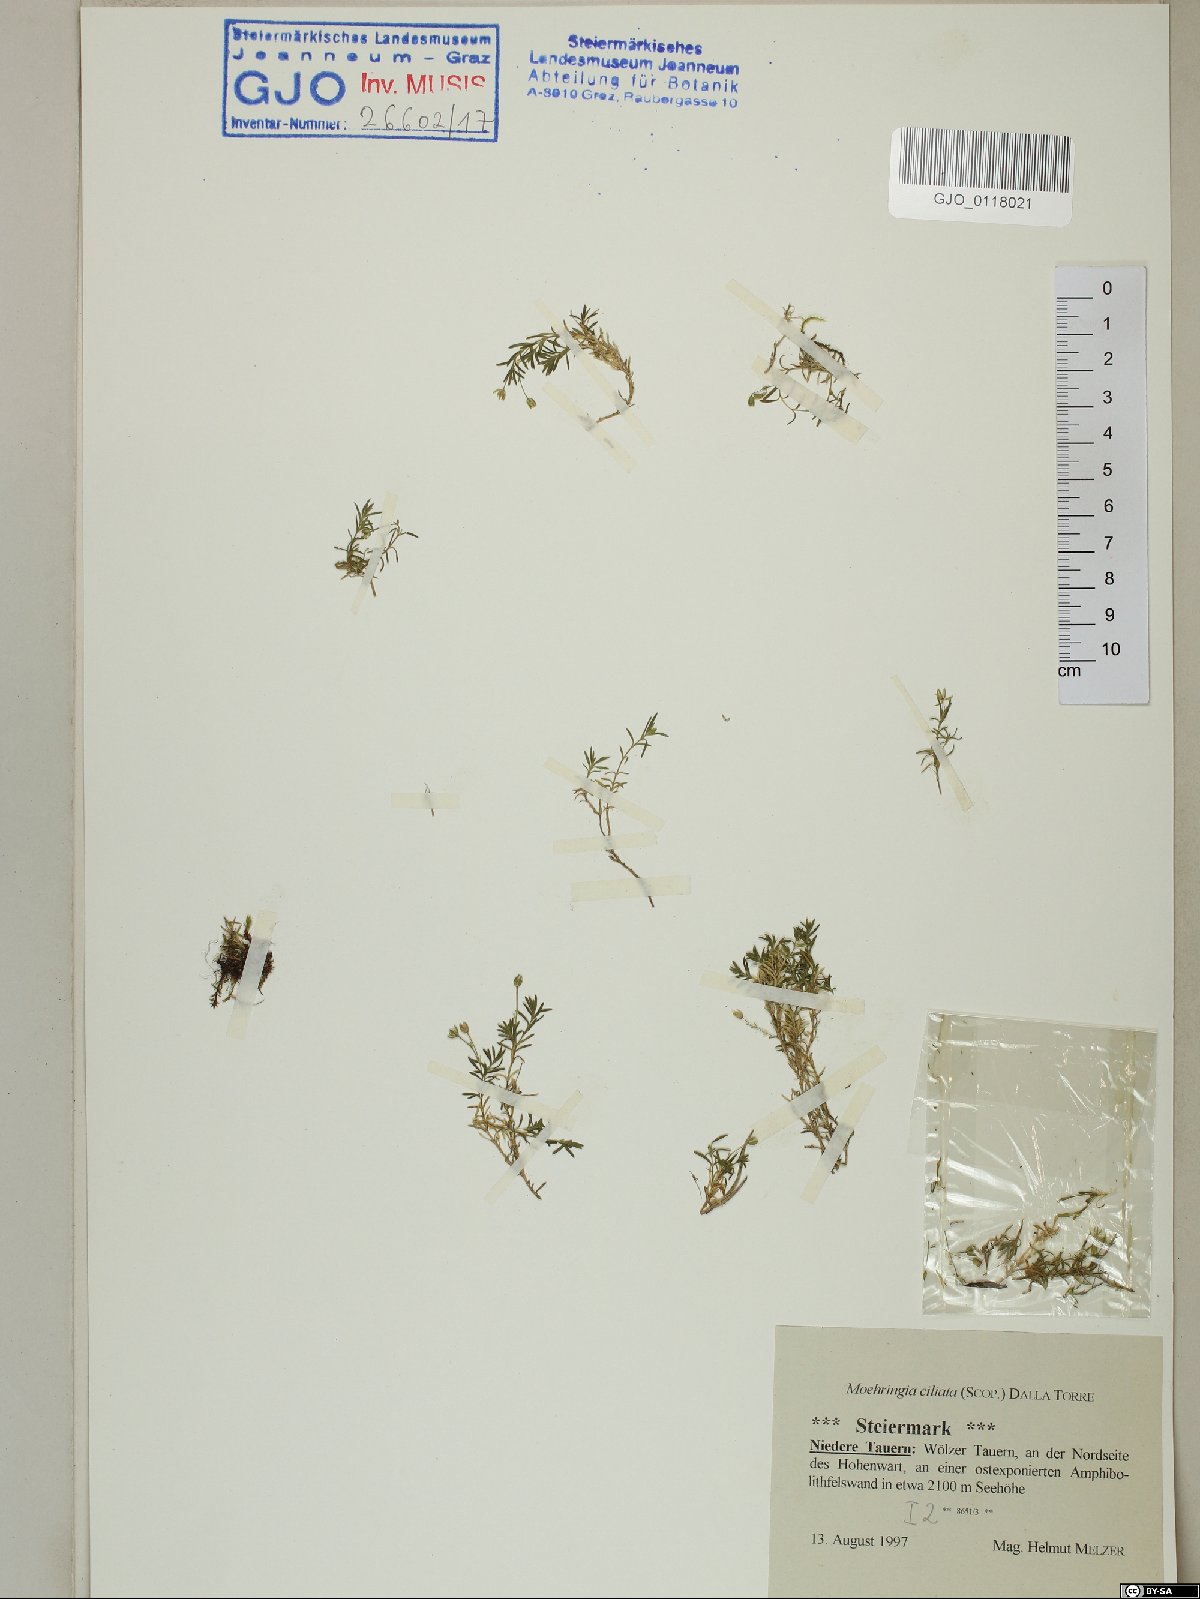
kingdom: Plantae
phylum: Tracheophyta
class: Magnoliopsida
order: Caryophyllales
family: Caryophyllaceae
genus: Moehringia
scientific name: Moehringia ciliata
